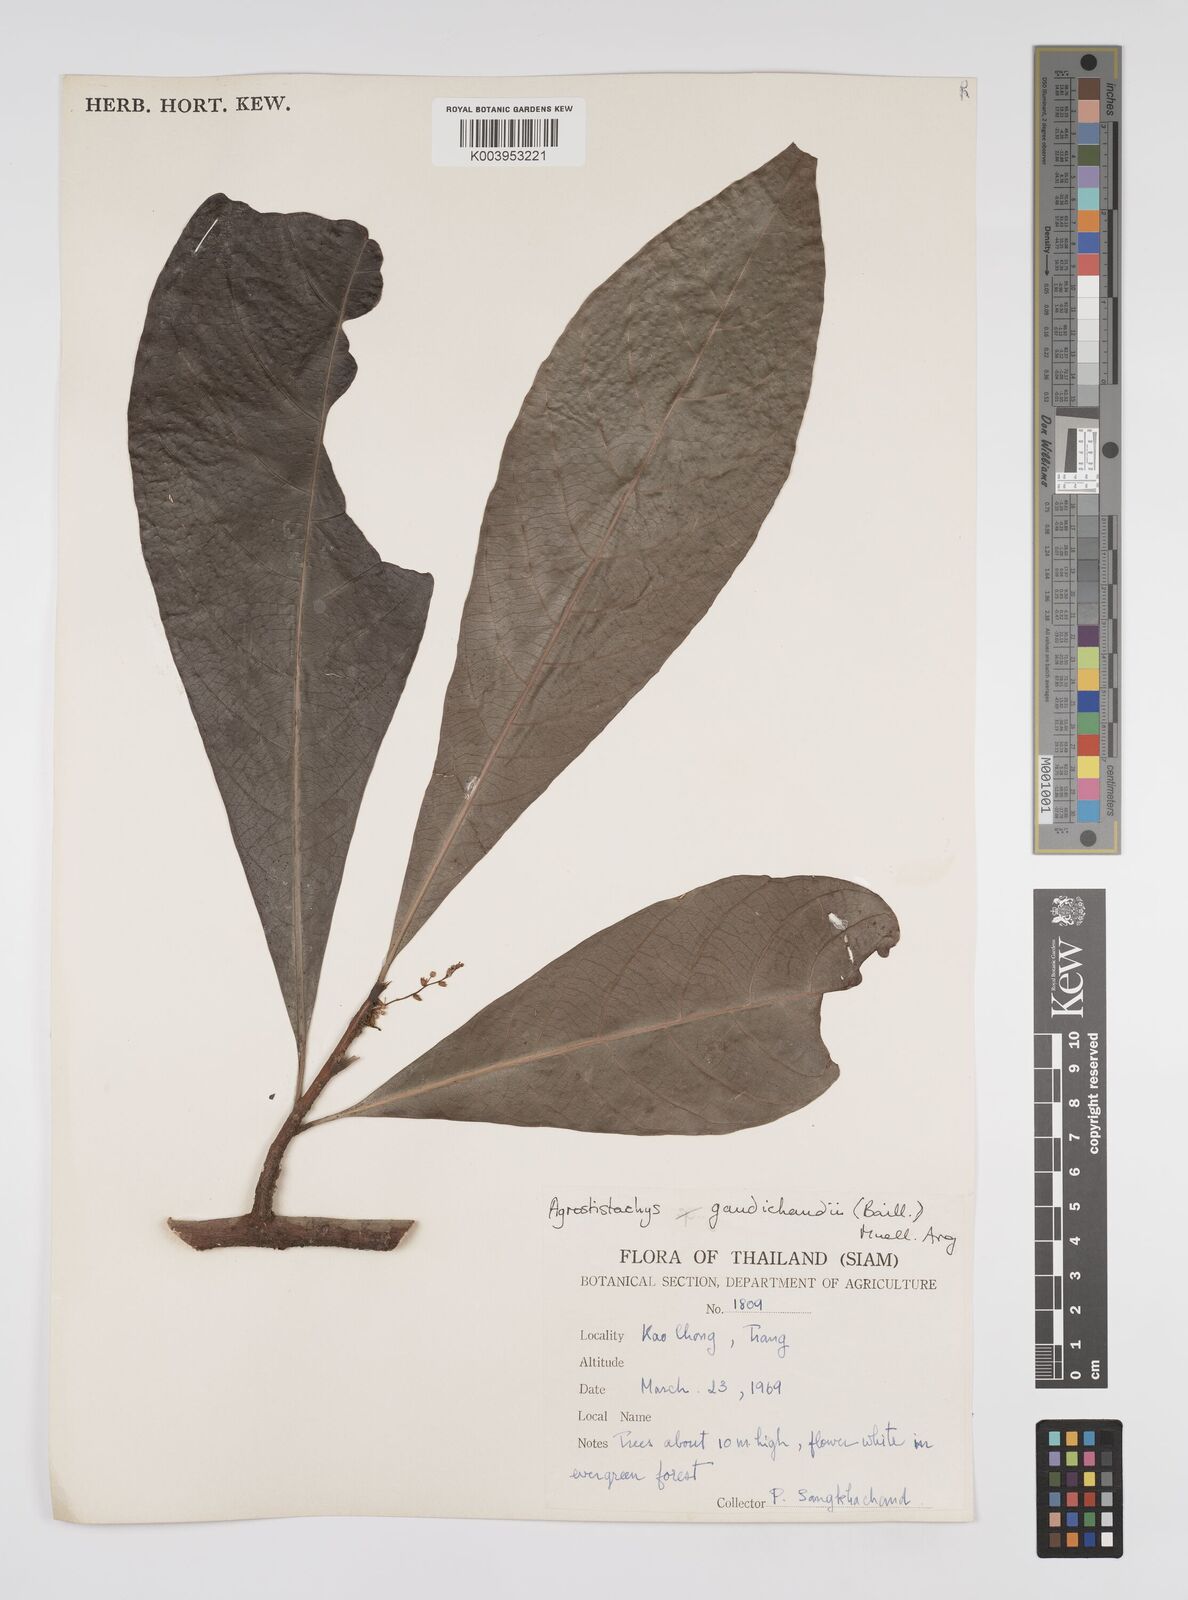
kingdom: Plantae
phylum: Tracheophyta
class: Magnoliopsida
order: Malpighiales
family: Euphorbiaceae
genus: Agrostistachys
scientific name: Agrostistachys gaudichaudii
